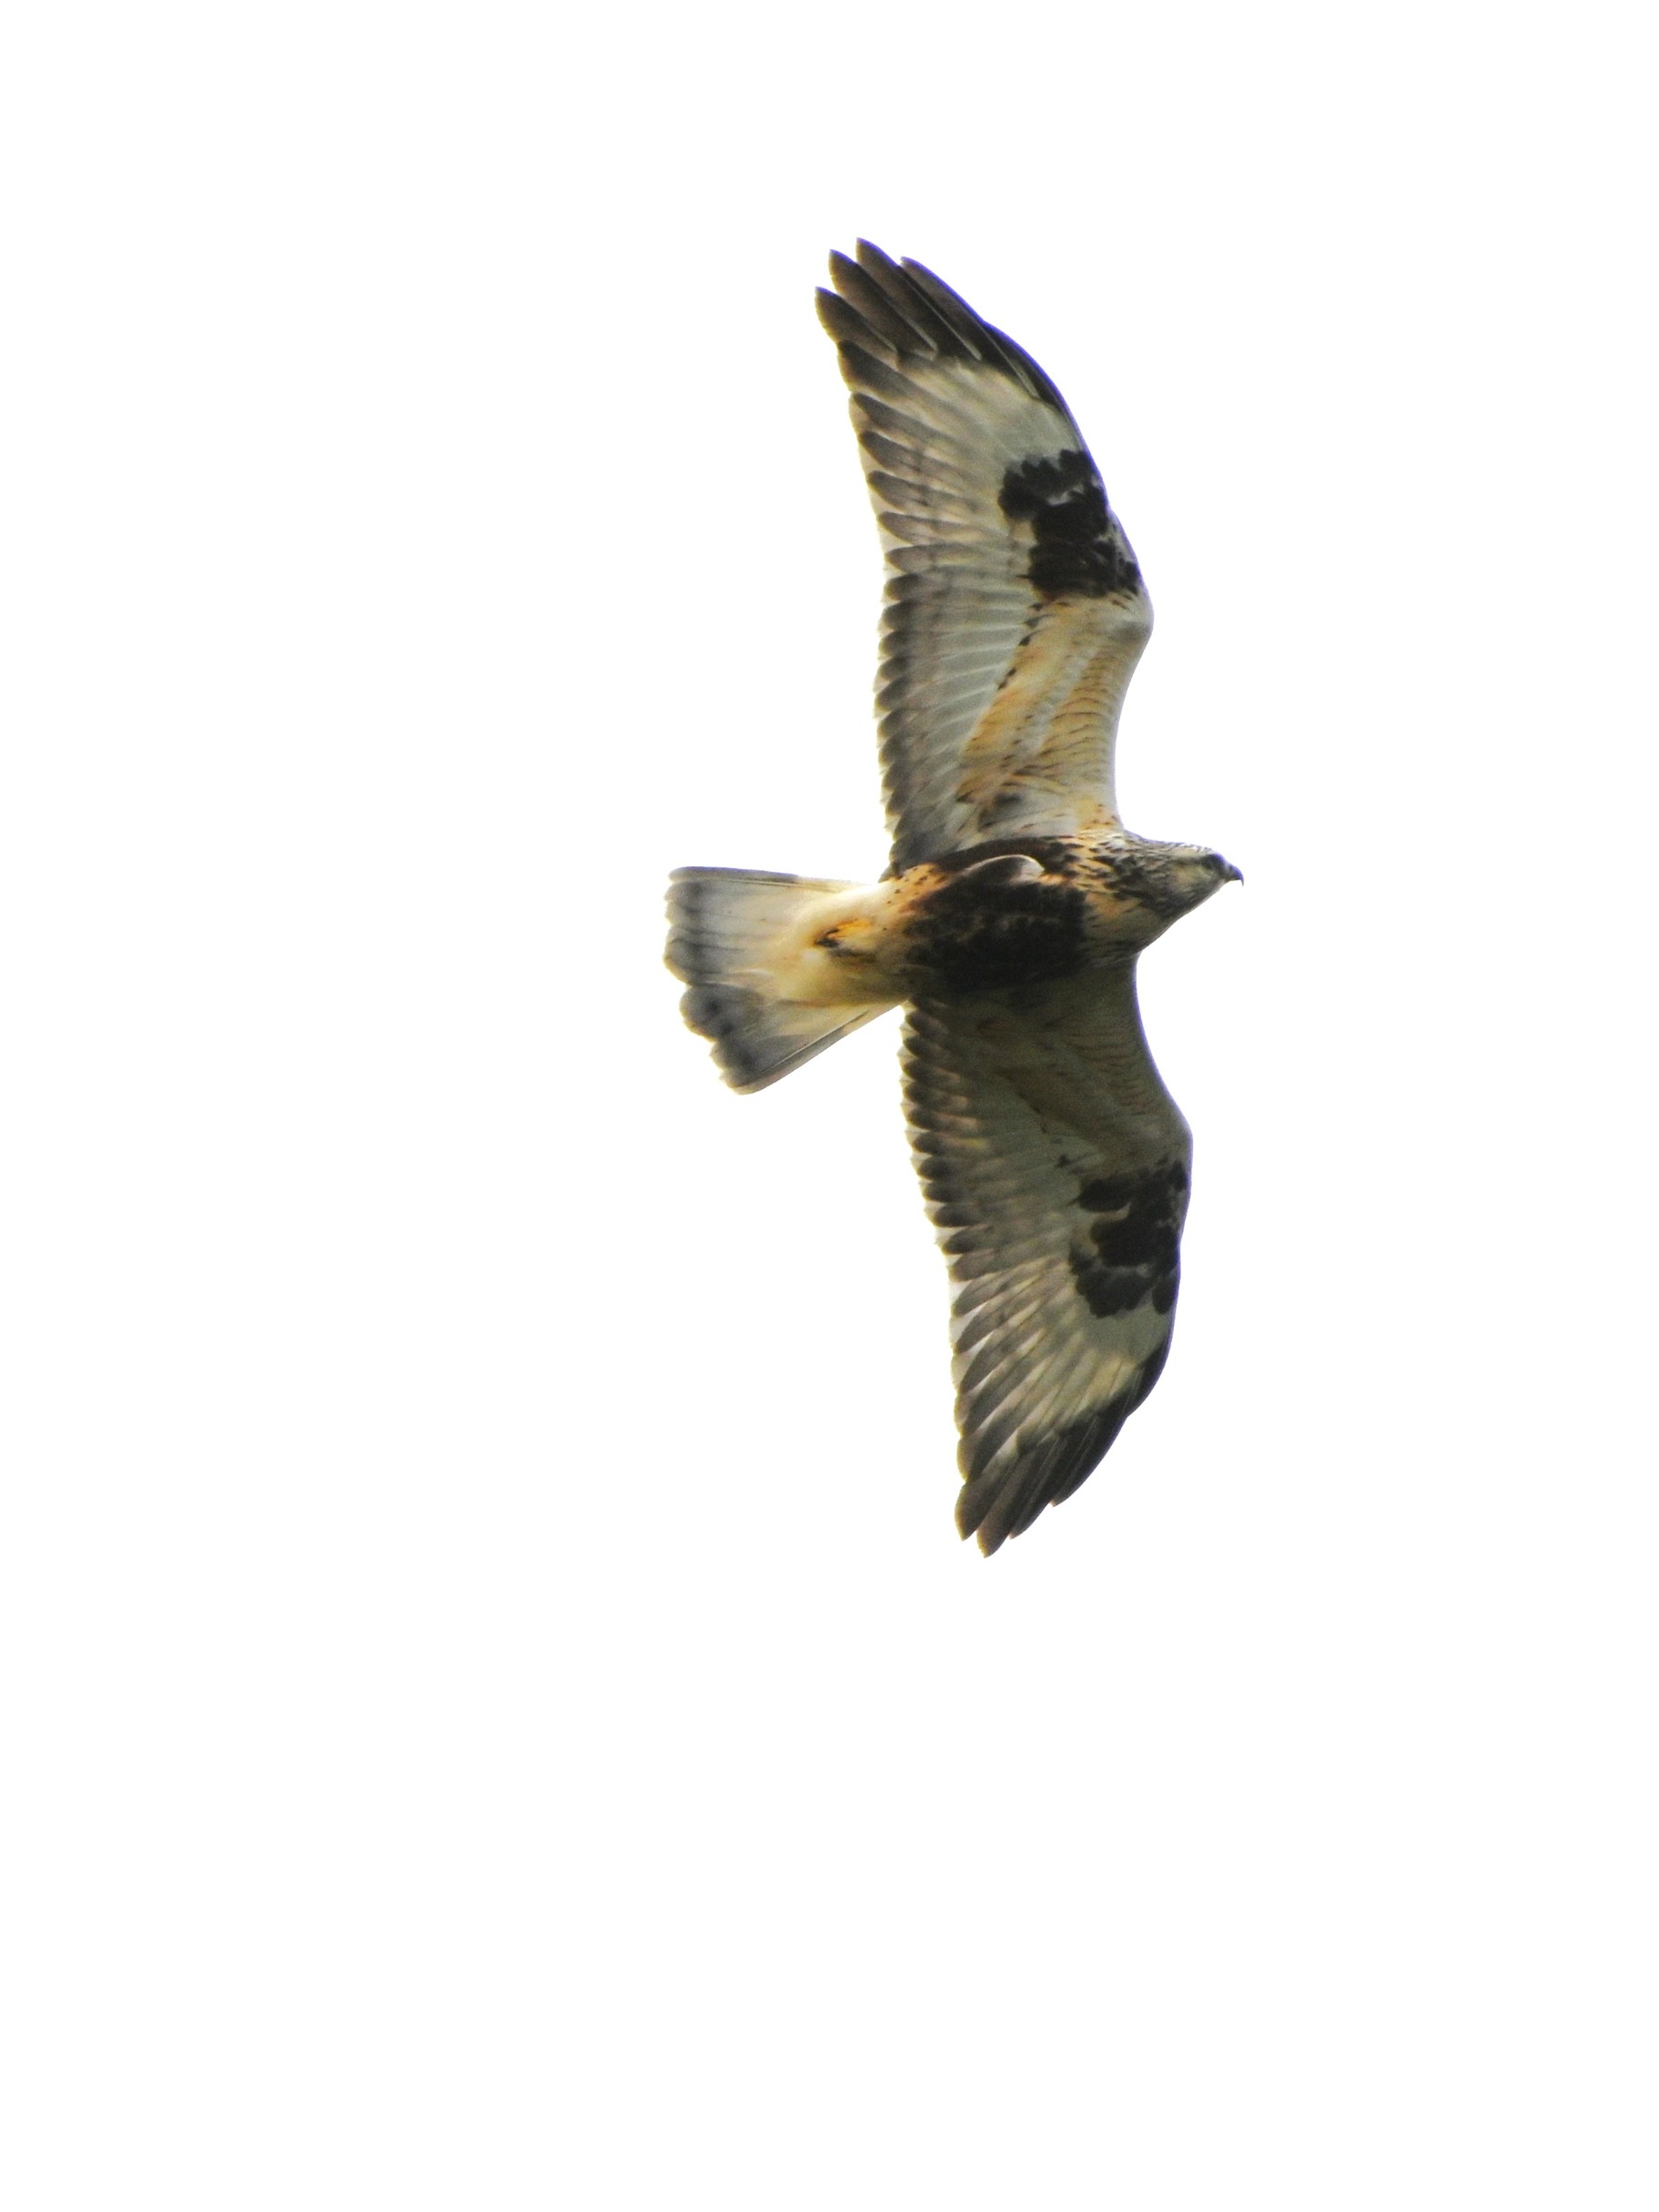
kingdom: Animalia
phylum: Chordata
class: Aves
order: Accipitriformes
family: Accipitridae
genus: Buteo
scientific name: Buteo lagopus
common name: Fjeldvåge
